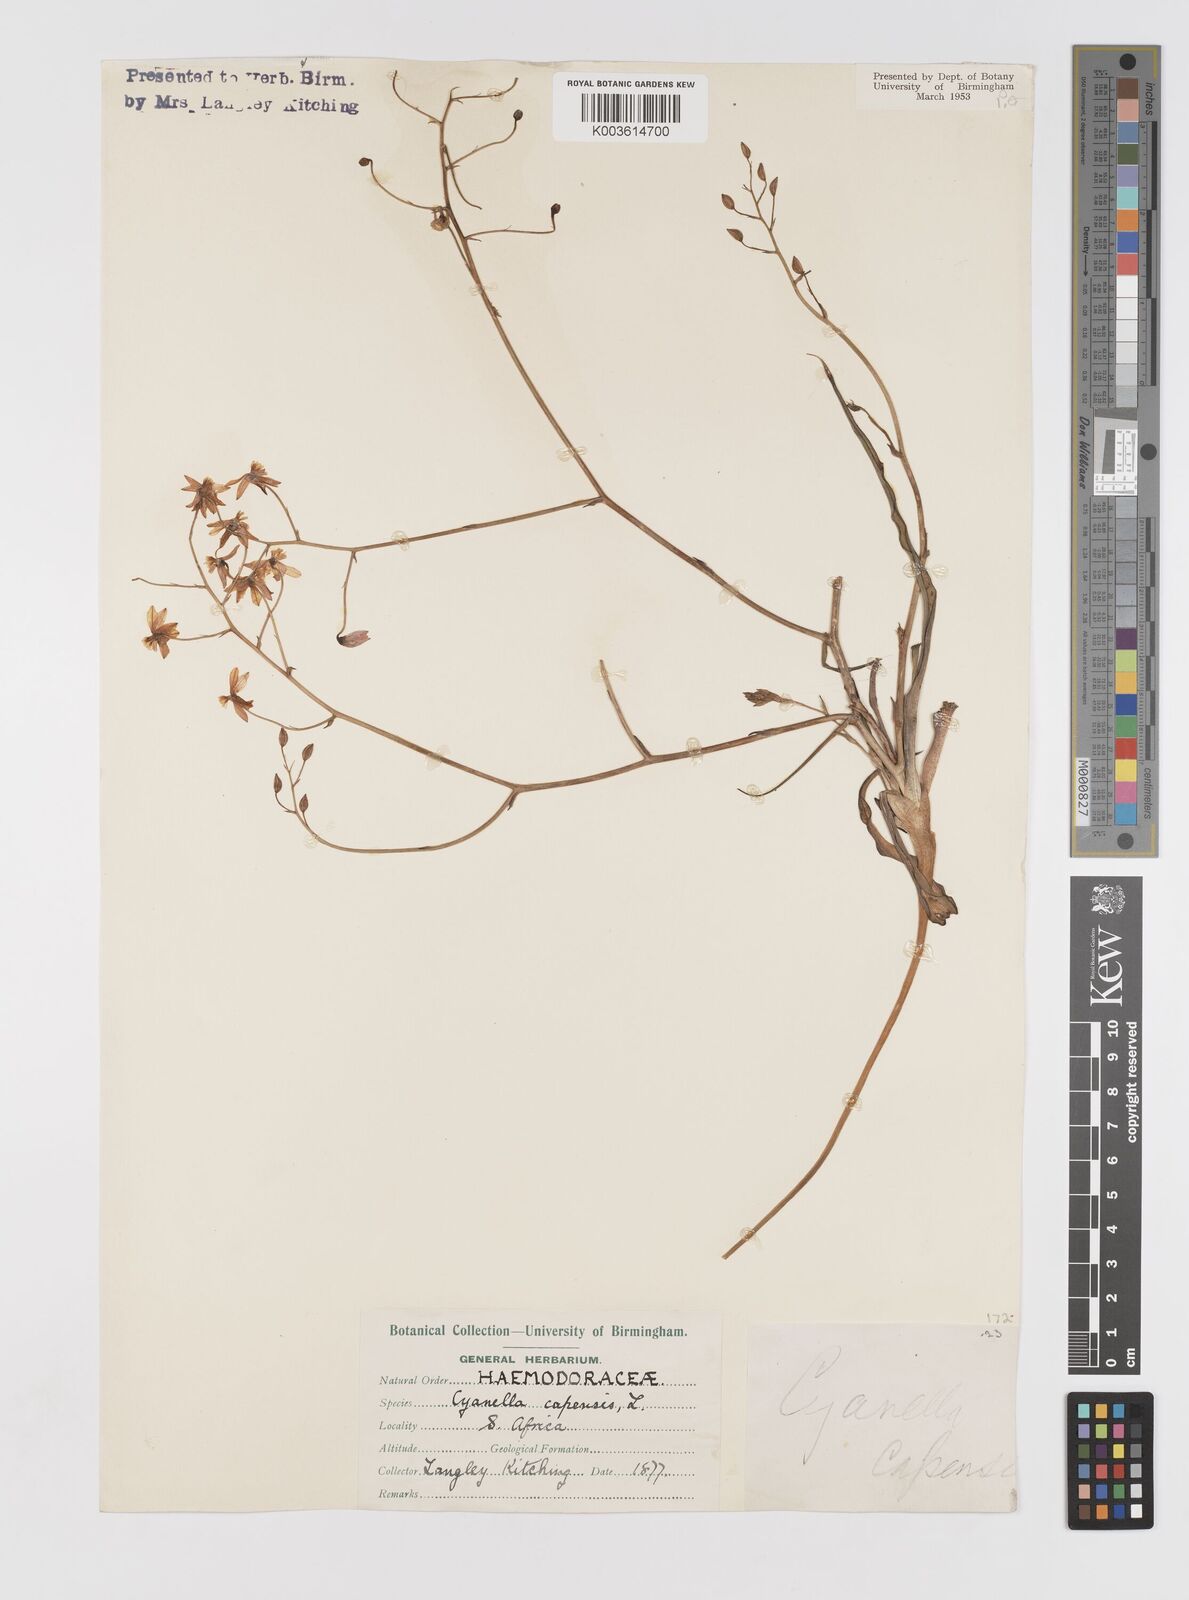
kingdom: Plantae
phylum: Tracheophyta
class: Liliopsida
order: Asparagales
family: Tecophilaeaceae
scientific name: Tecophilaeaceae
